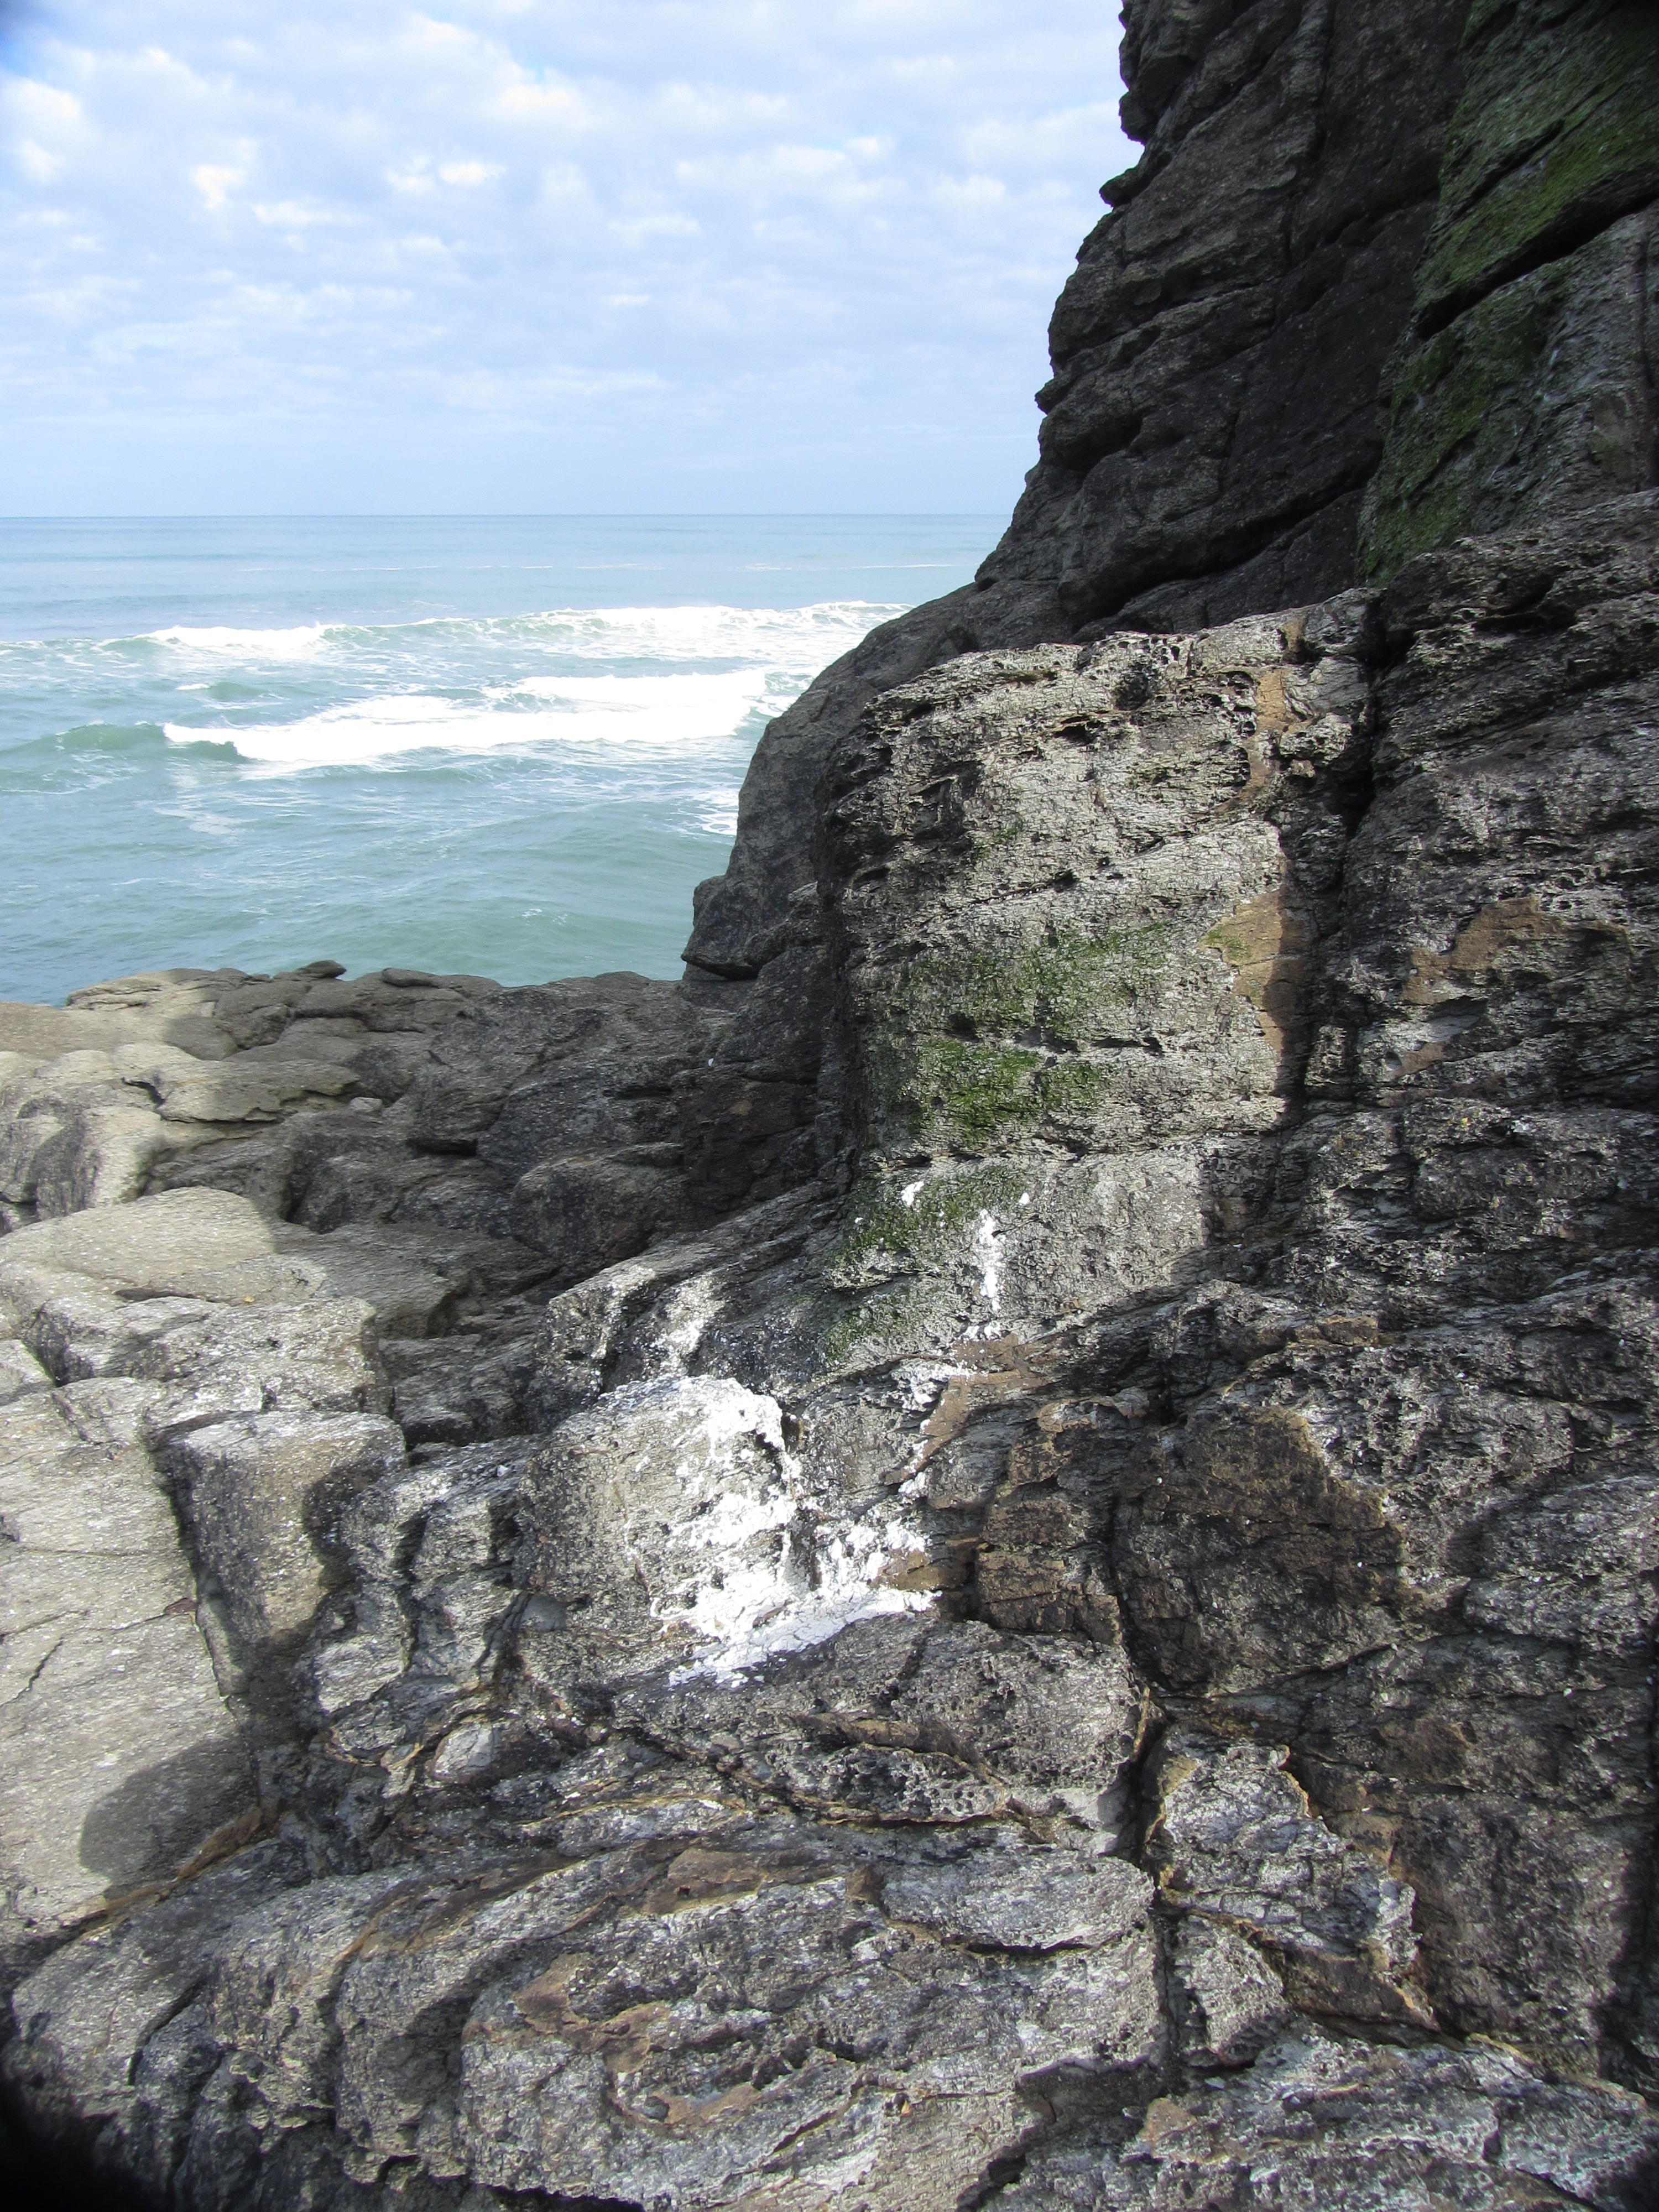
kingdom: Fungi
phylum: Ascomycota
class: Lecanoromycetes
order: Teloschistales
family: Teloschistaceae
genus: Caloplaca
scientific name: Caloplaca allanii
